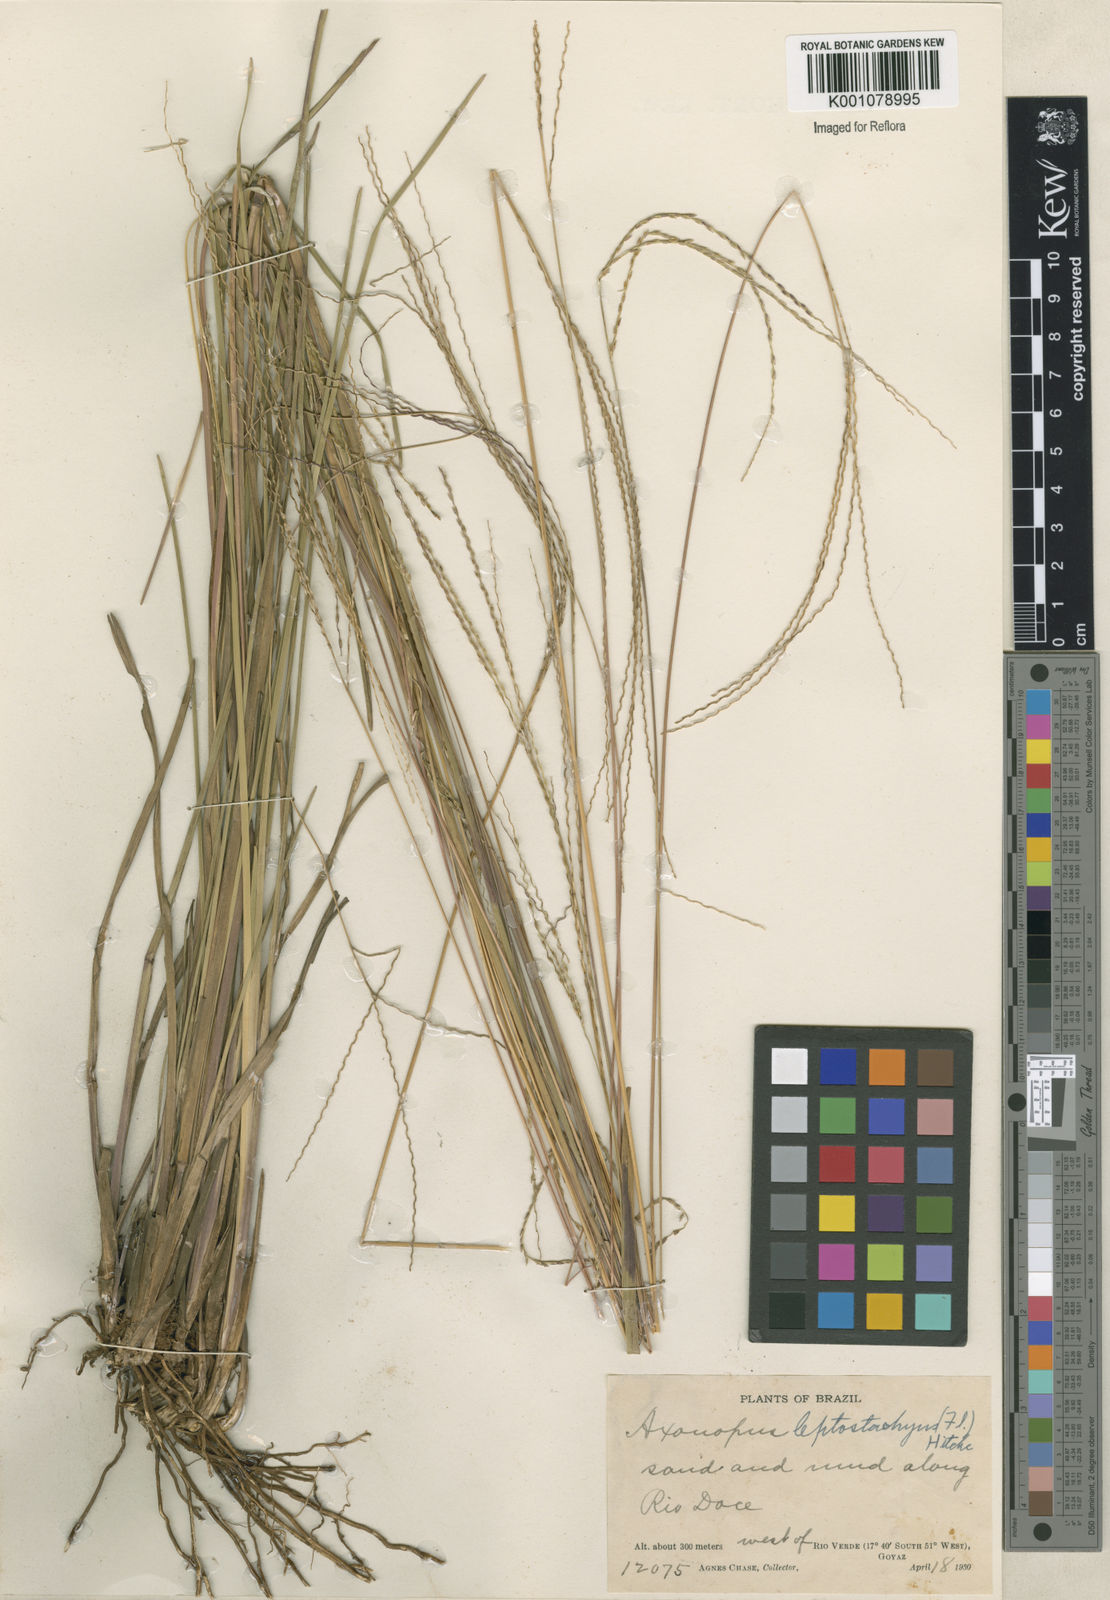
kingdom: Plantae
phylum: Tracheophyta
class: Liliopsida
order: Poales
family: Poaceae
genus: Axonopus
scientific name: Axonopus
